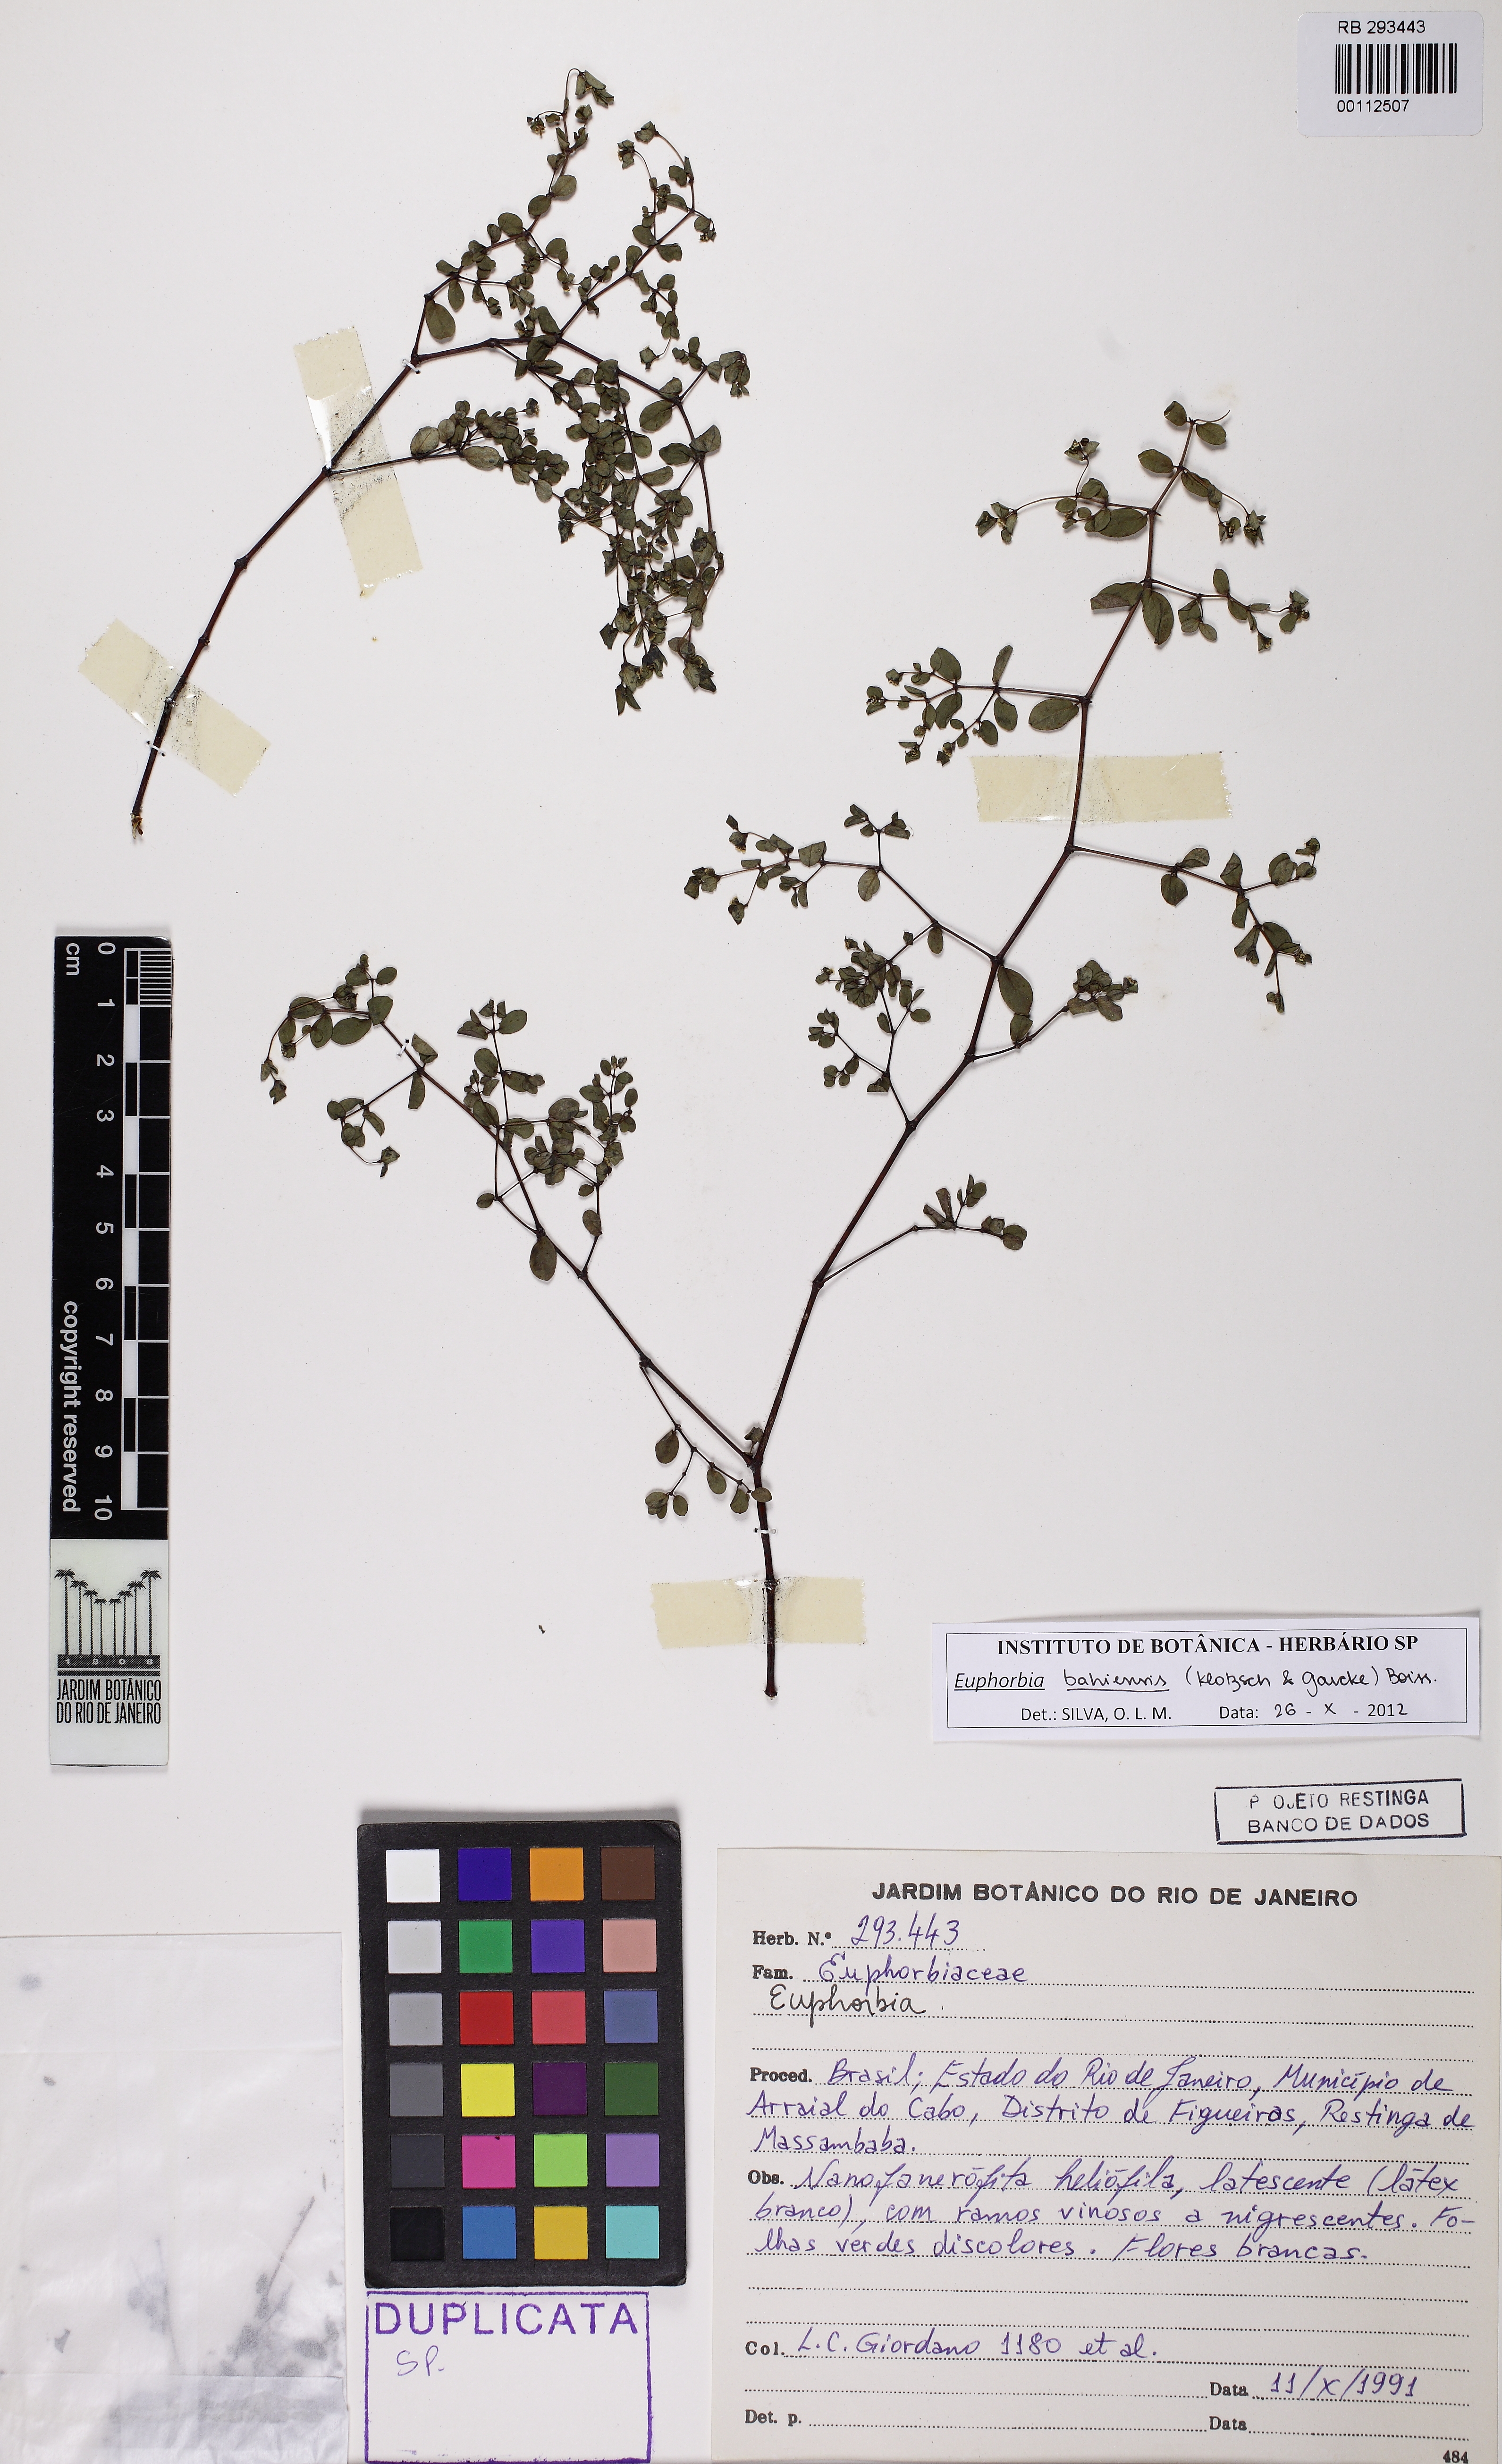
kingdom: Plantae
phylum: Tracheophyta
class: Magnoliopsida
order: Malpighiales
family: Euphorbiaceae
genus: Euphorbia
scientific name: Euphorbia bahiensis
